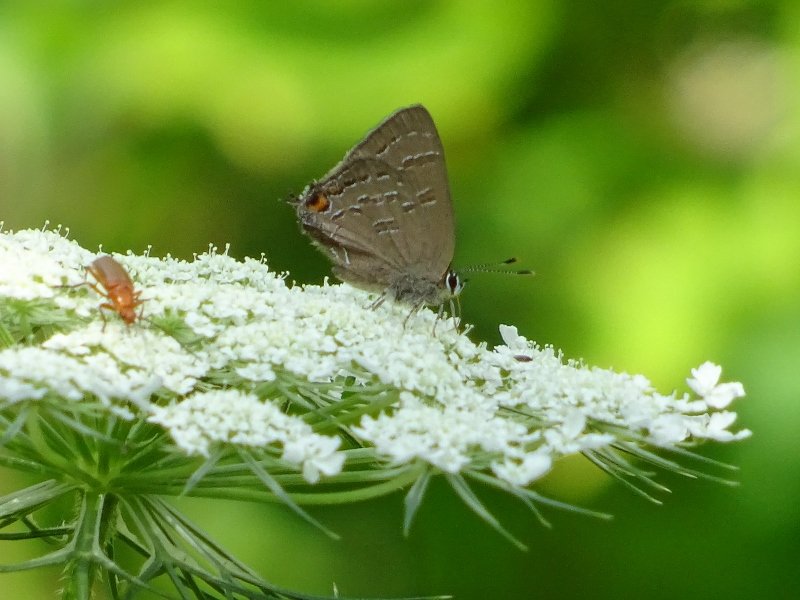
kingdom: Animalia
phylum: Arthropoda
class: Insecta
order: Lepidoptera
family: Lycaenidae
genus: Satyrium
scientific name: Satyrium calanus
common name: Banded Hairstreak
